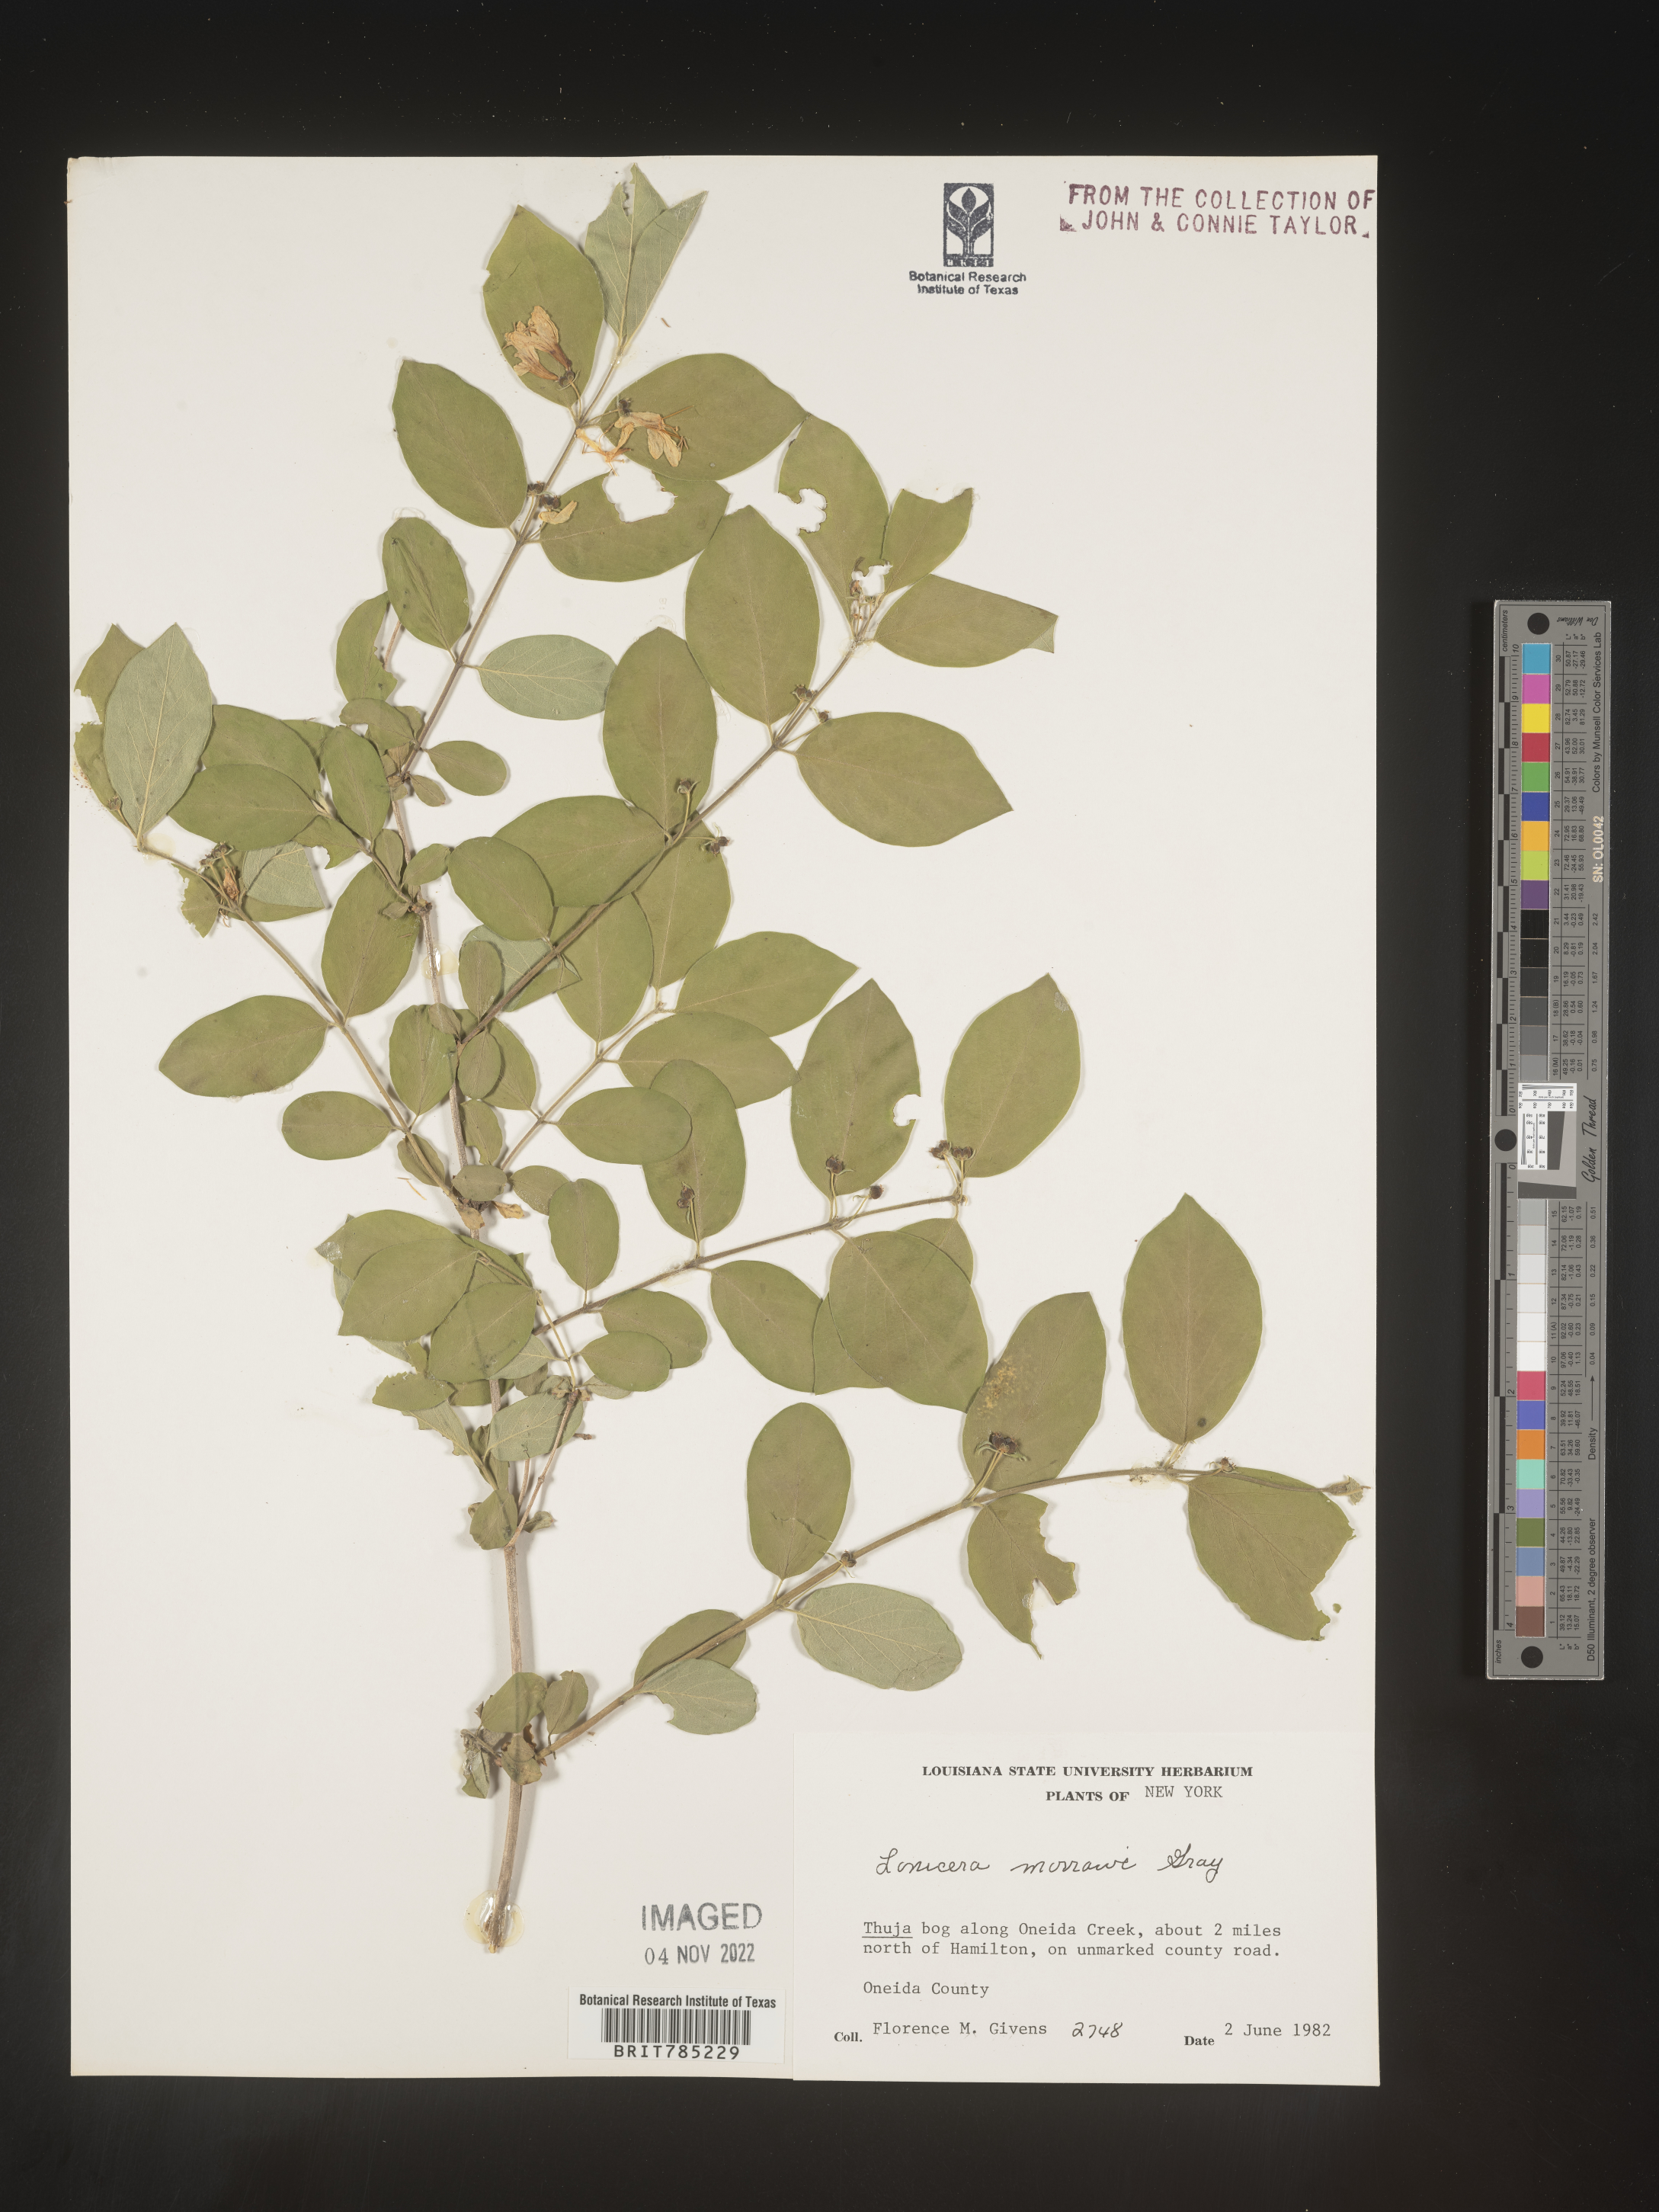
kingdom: Plantae
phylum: Tracheophyta
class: Magnoliopsida
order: Dipsacales
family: Caprifoliaceae
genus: Lonicera
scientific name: Lonicera
